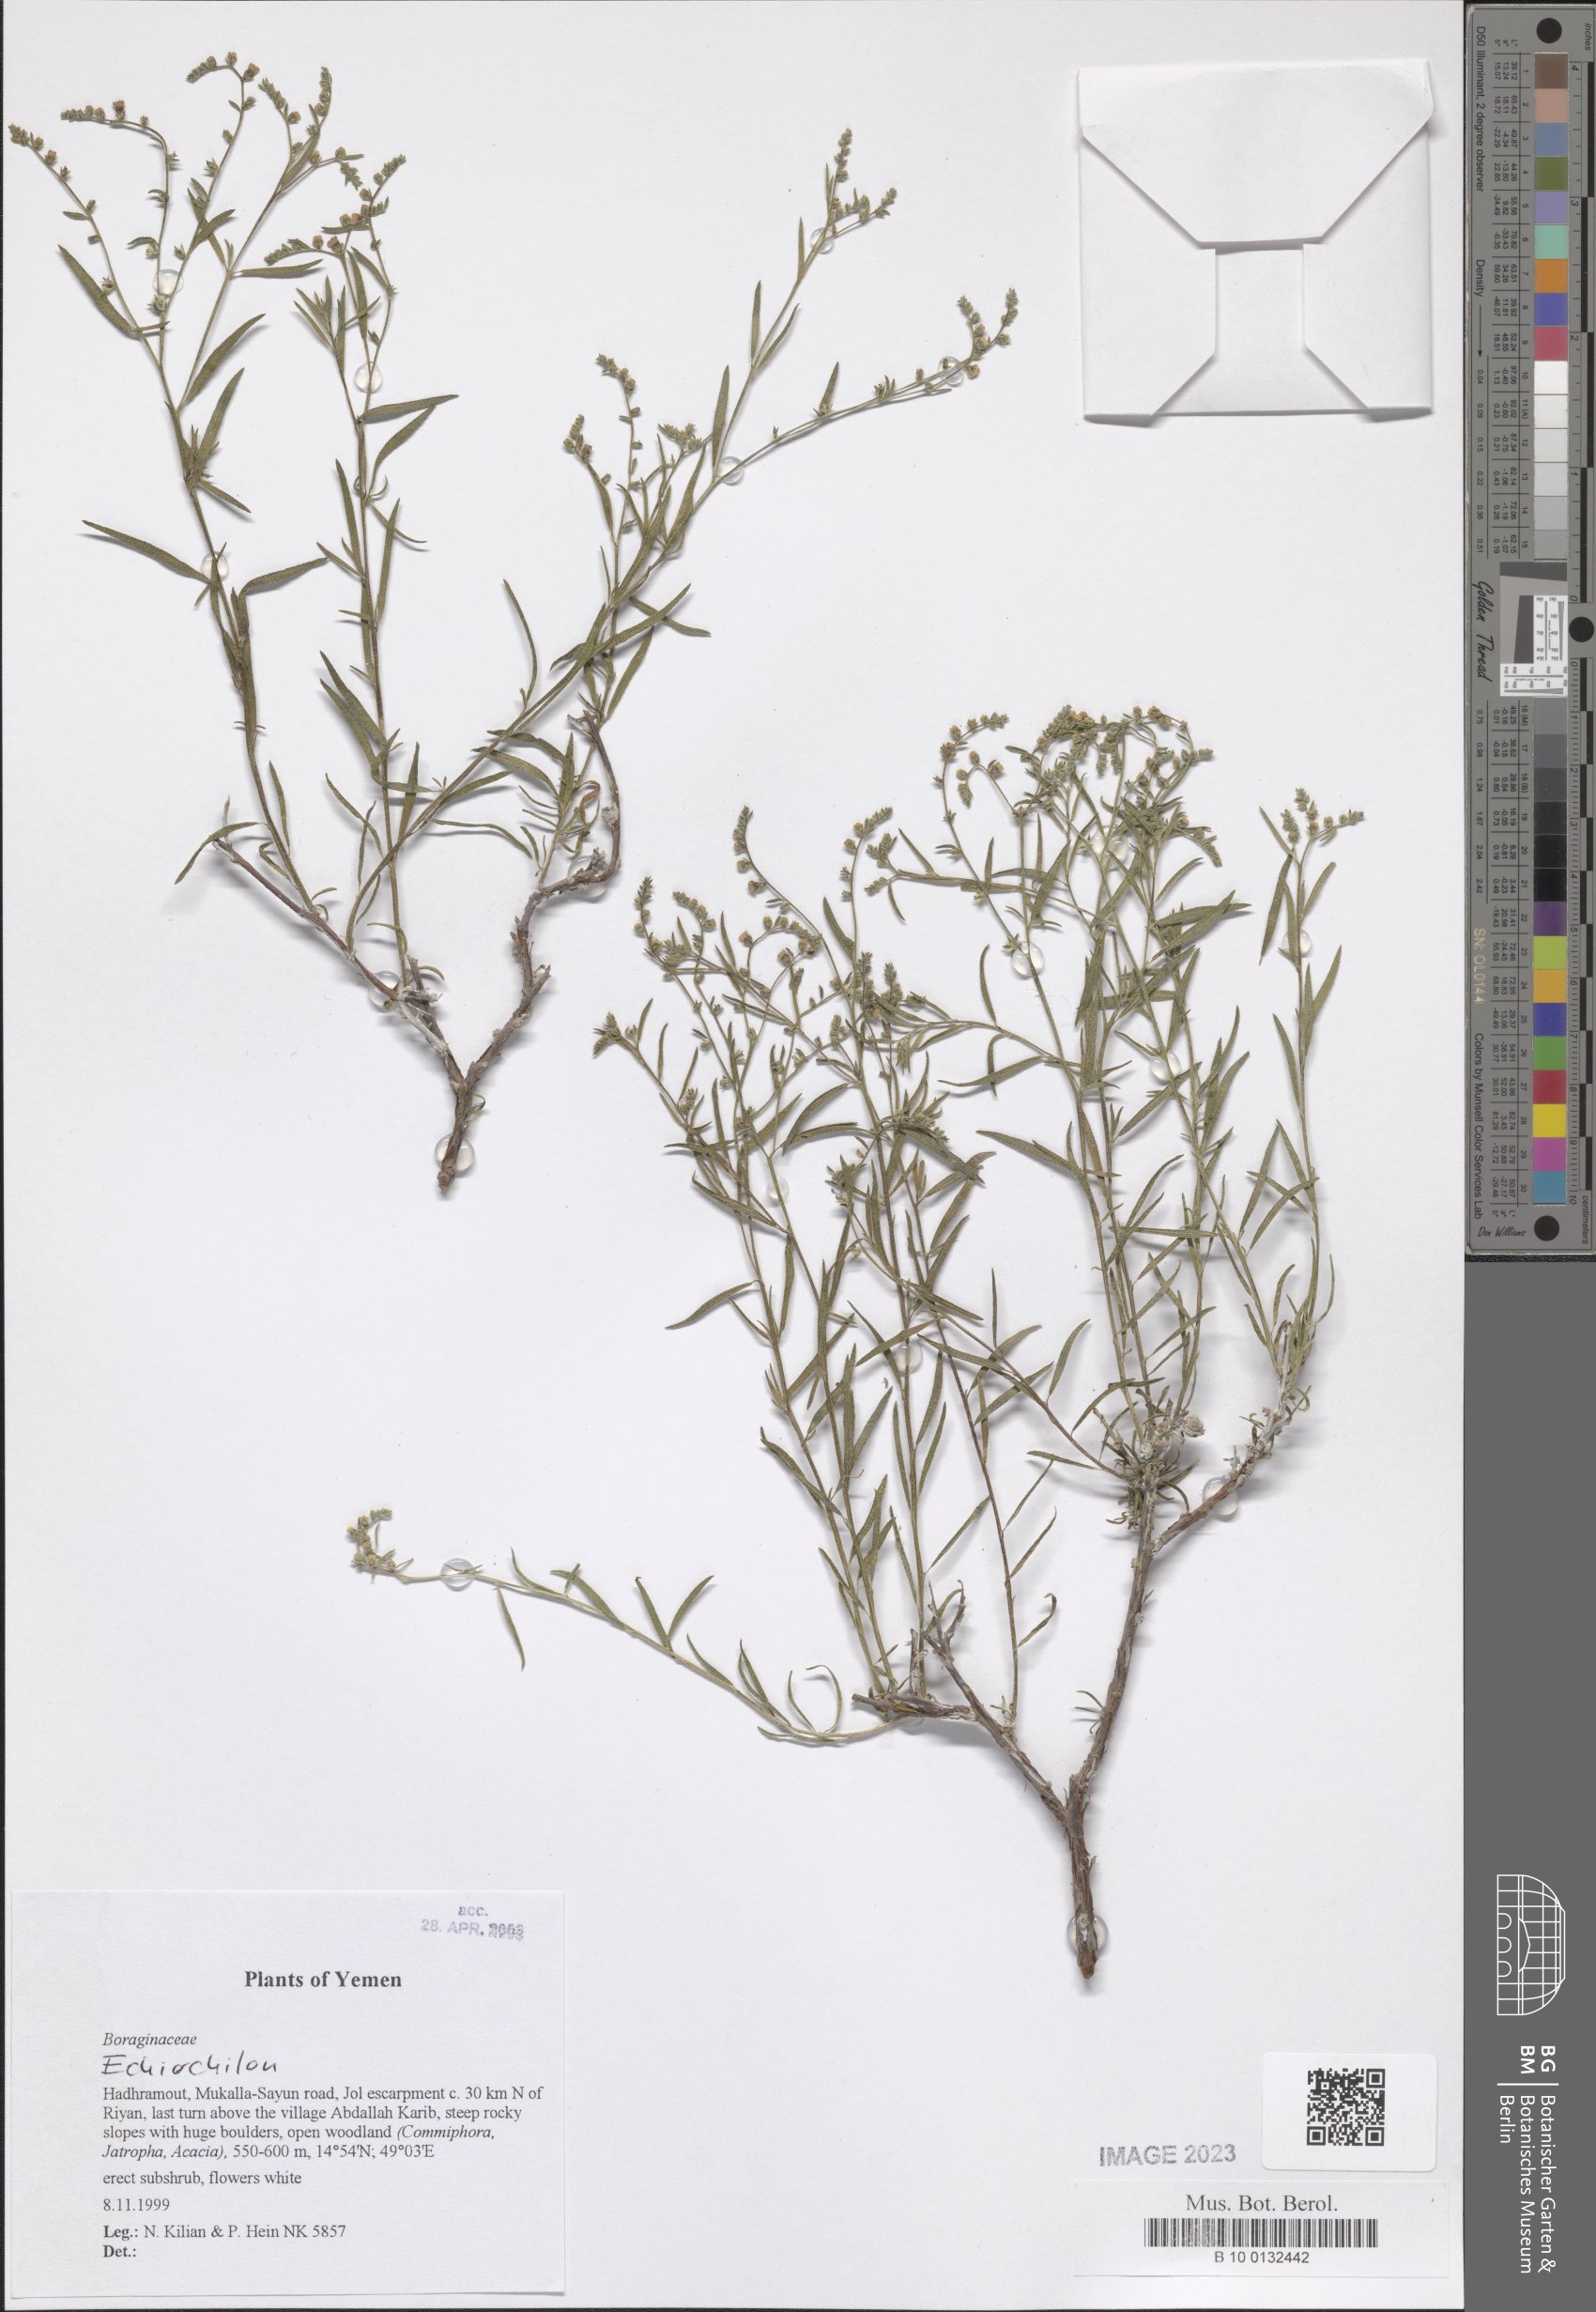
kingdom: Plantae
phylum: Tracheophyta
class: Magnoliopsida
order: Boraginales
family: Boraginaceae
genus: Echiochilon
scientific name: Echiochilon
